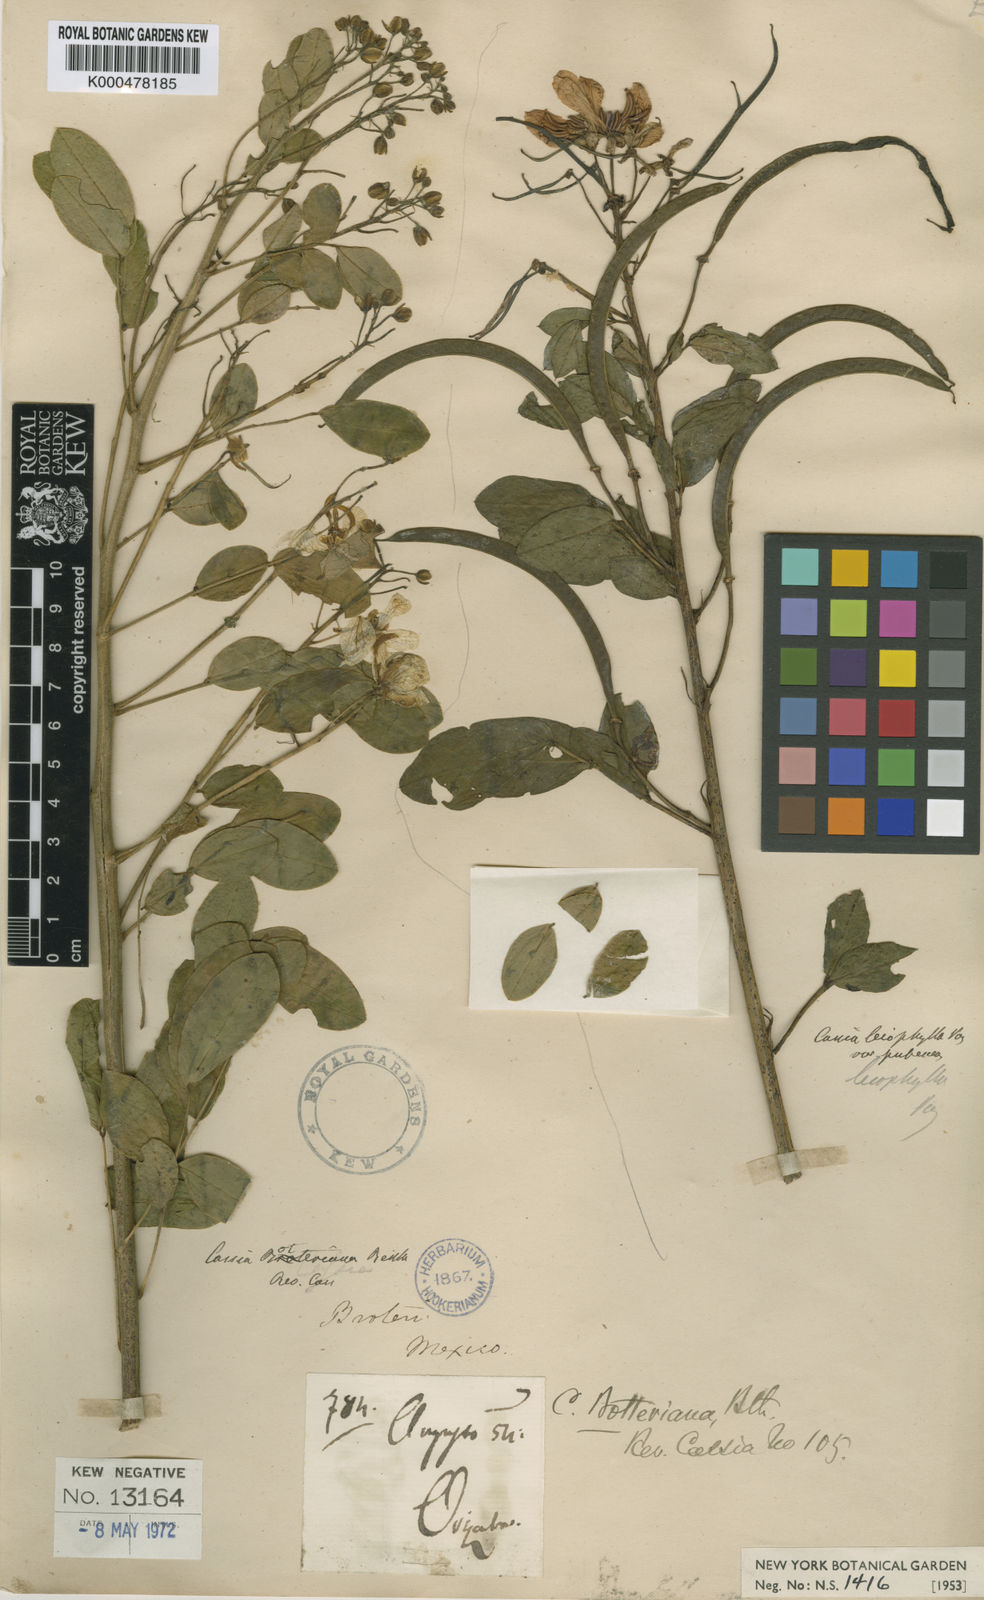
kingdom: Plantae
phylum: Tracheophyta
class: Magnoliopsida
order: Fabales
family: Fabaceae
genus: Senna
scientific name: Senna pendula
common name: Easter cassia
